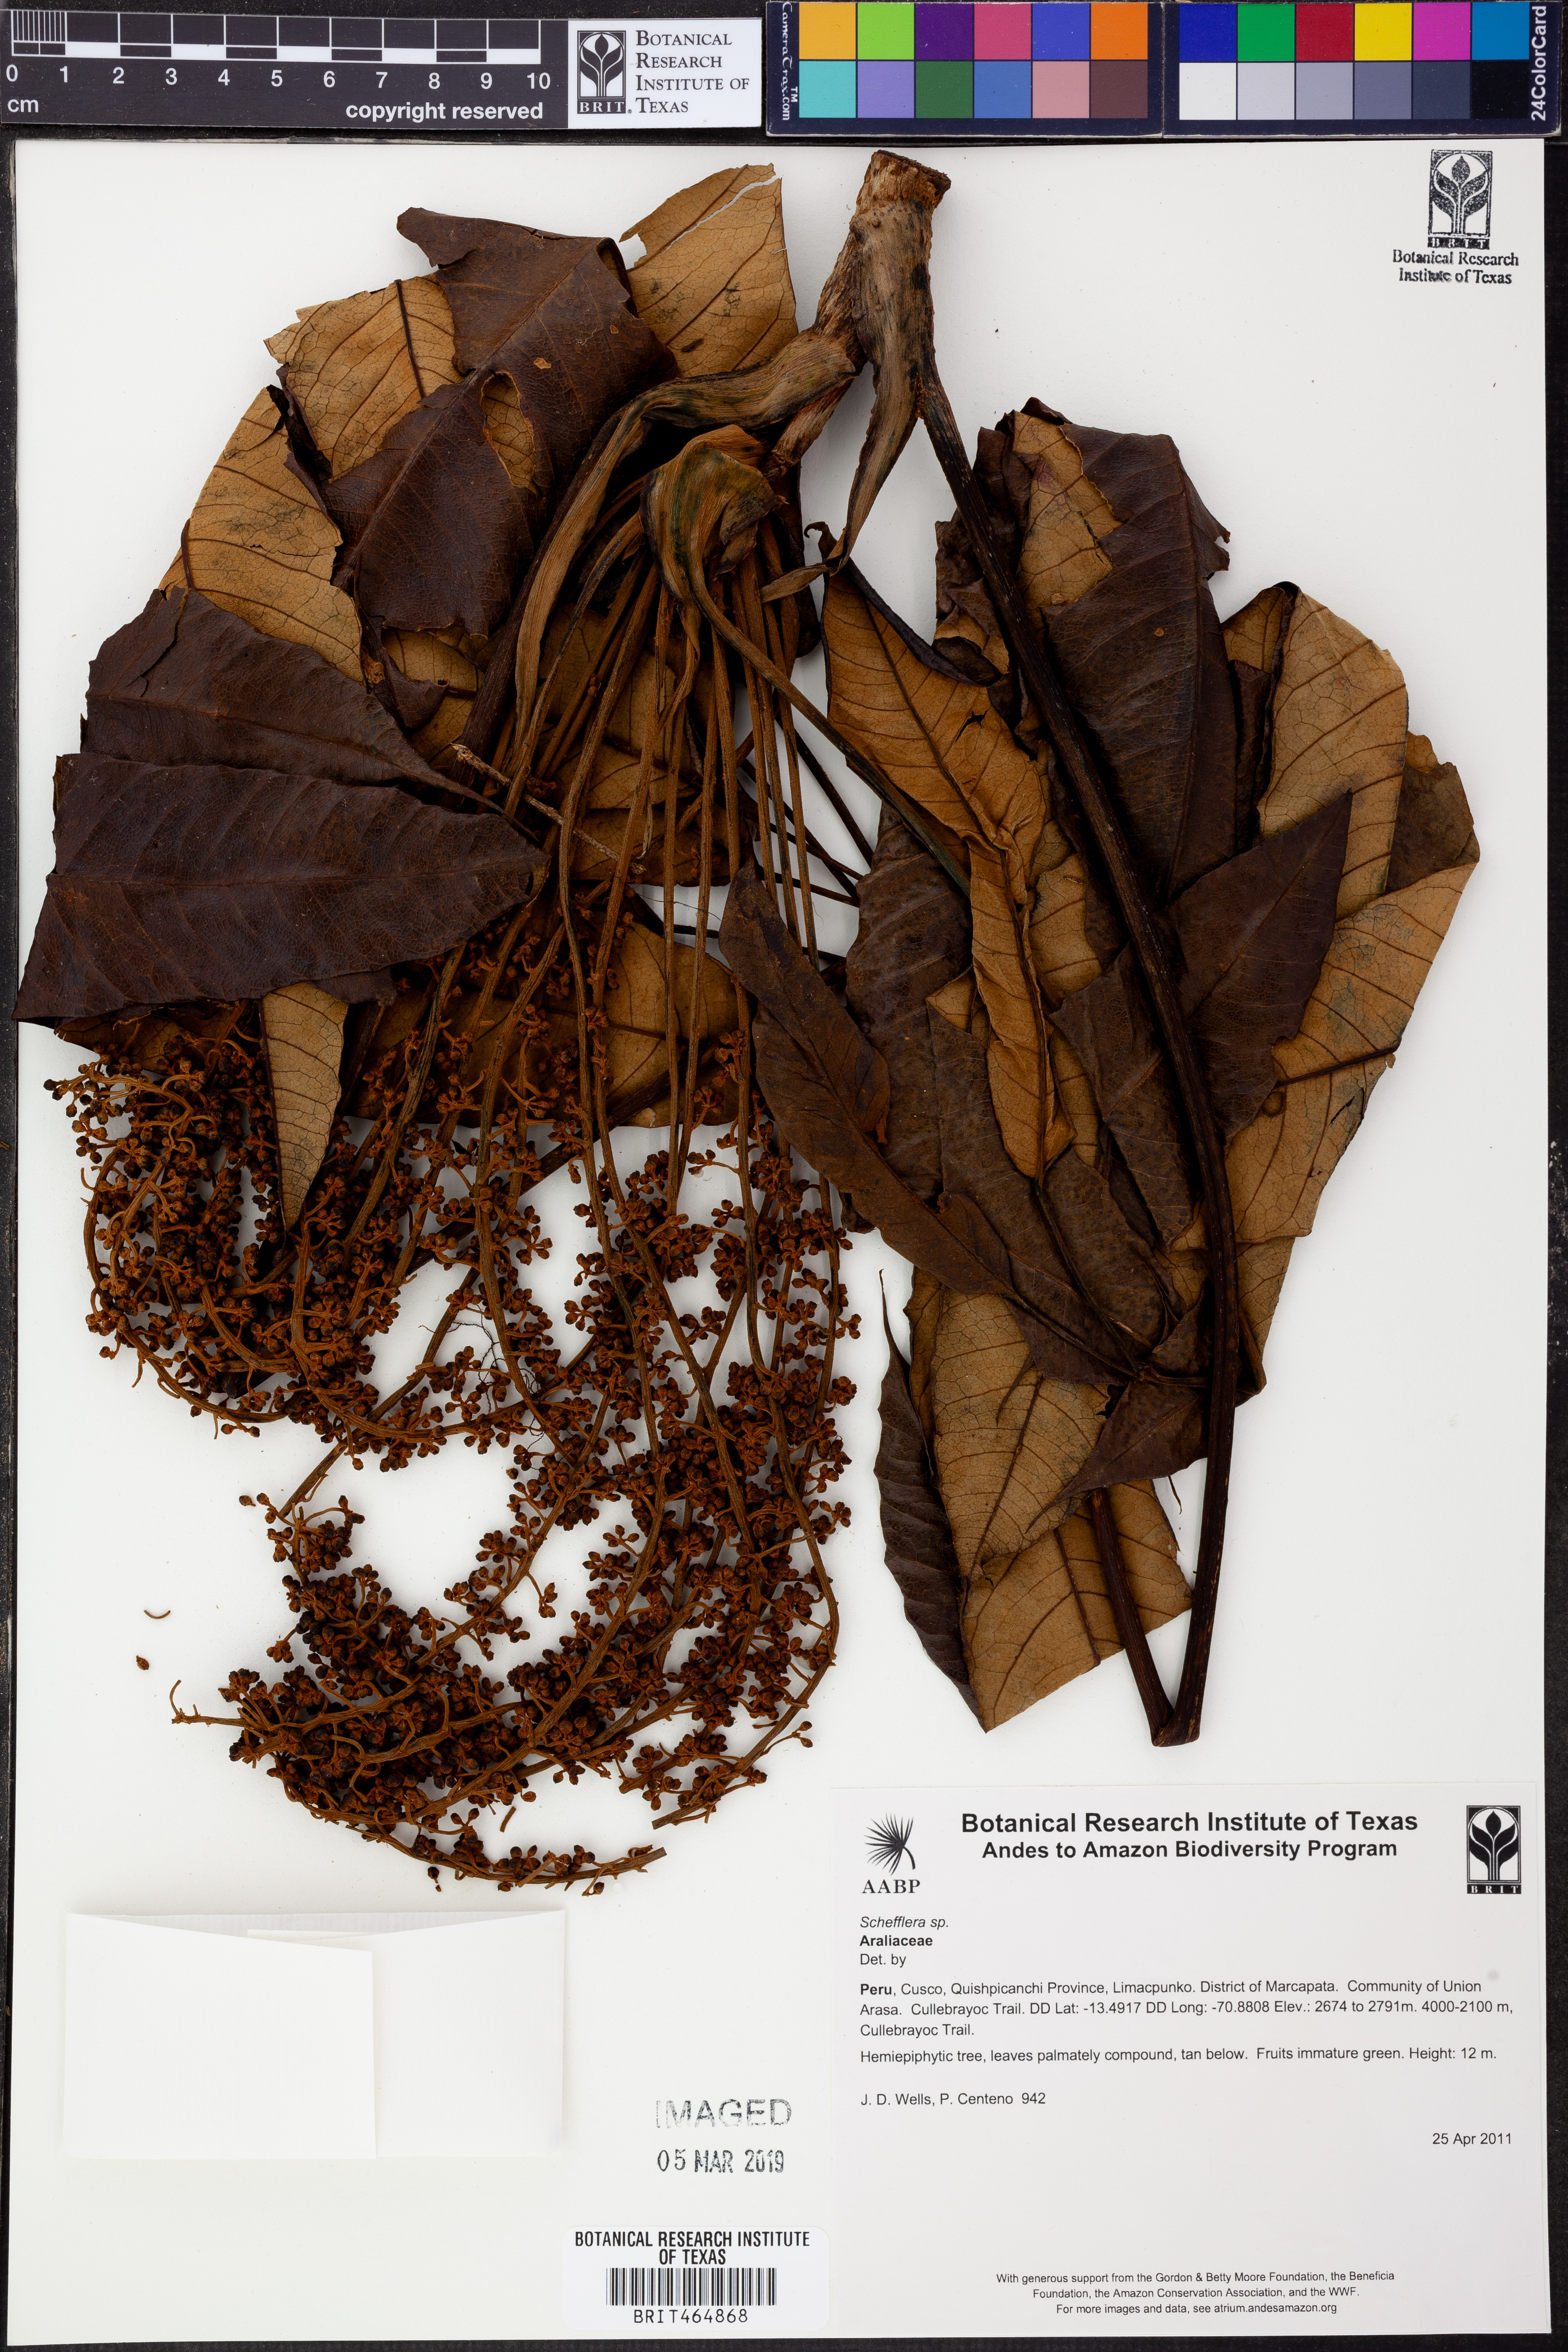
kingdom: Plantae
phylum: Tracheophyta
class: Magnoliopsida
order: Apiales
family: Araliaceae
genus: Schefflera
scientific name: Schefflera
